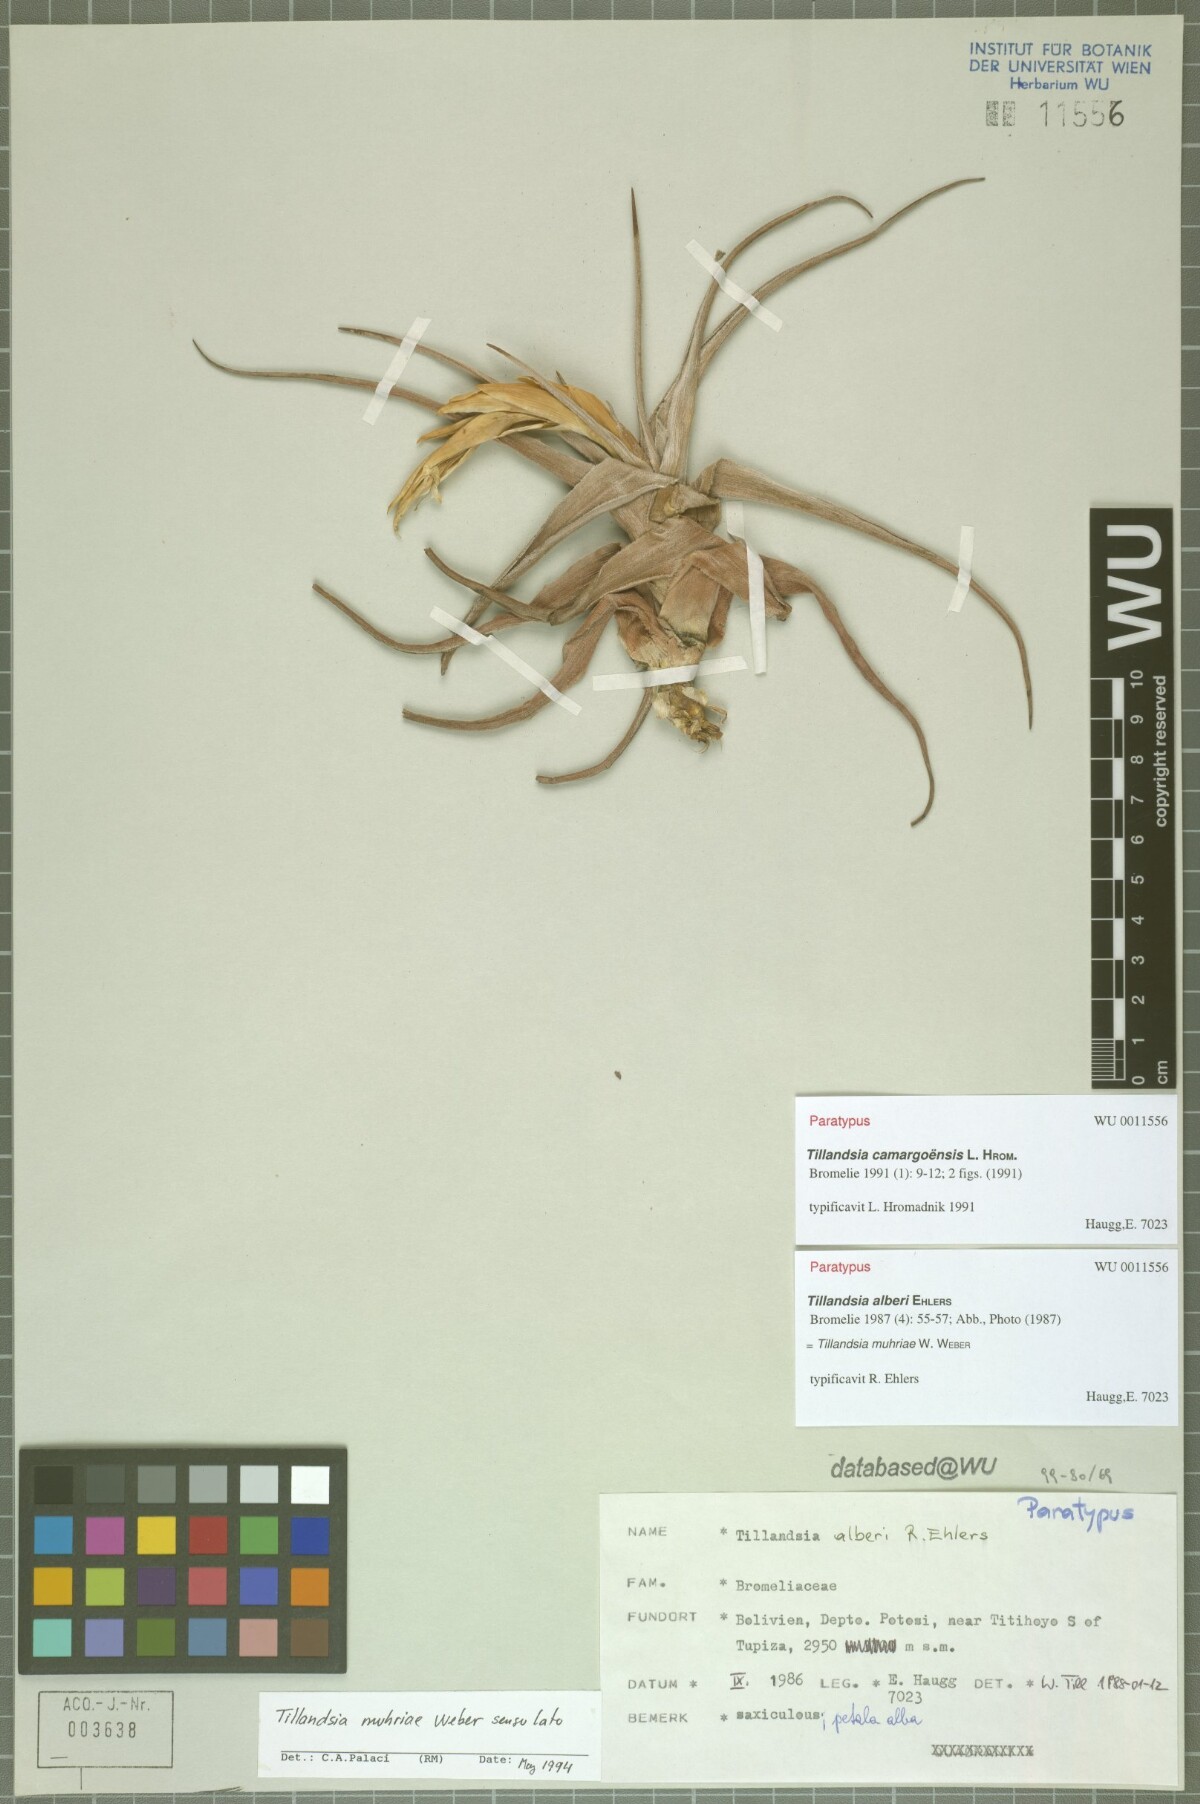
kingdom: Plantae
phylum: Tracheophyta
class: Liliopsida
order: Poales
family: Bromeliaceae
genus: Tillandsia
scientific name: Tillandsia muhriae
